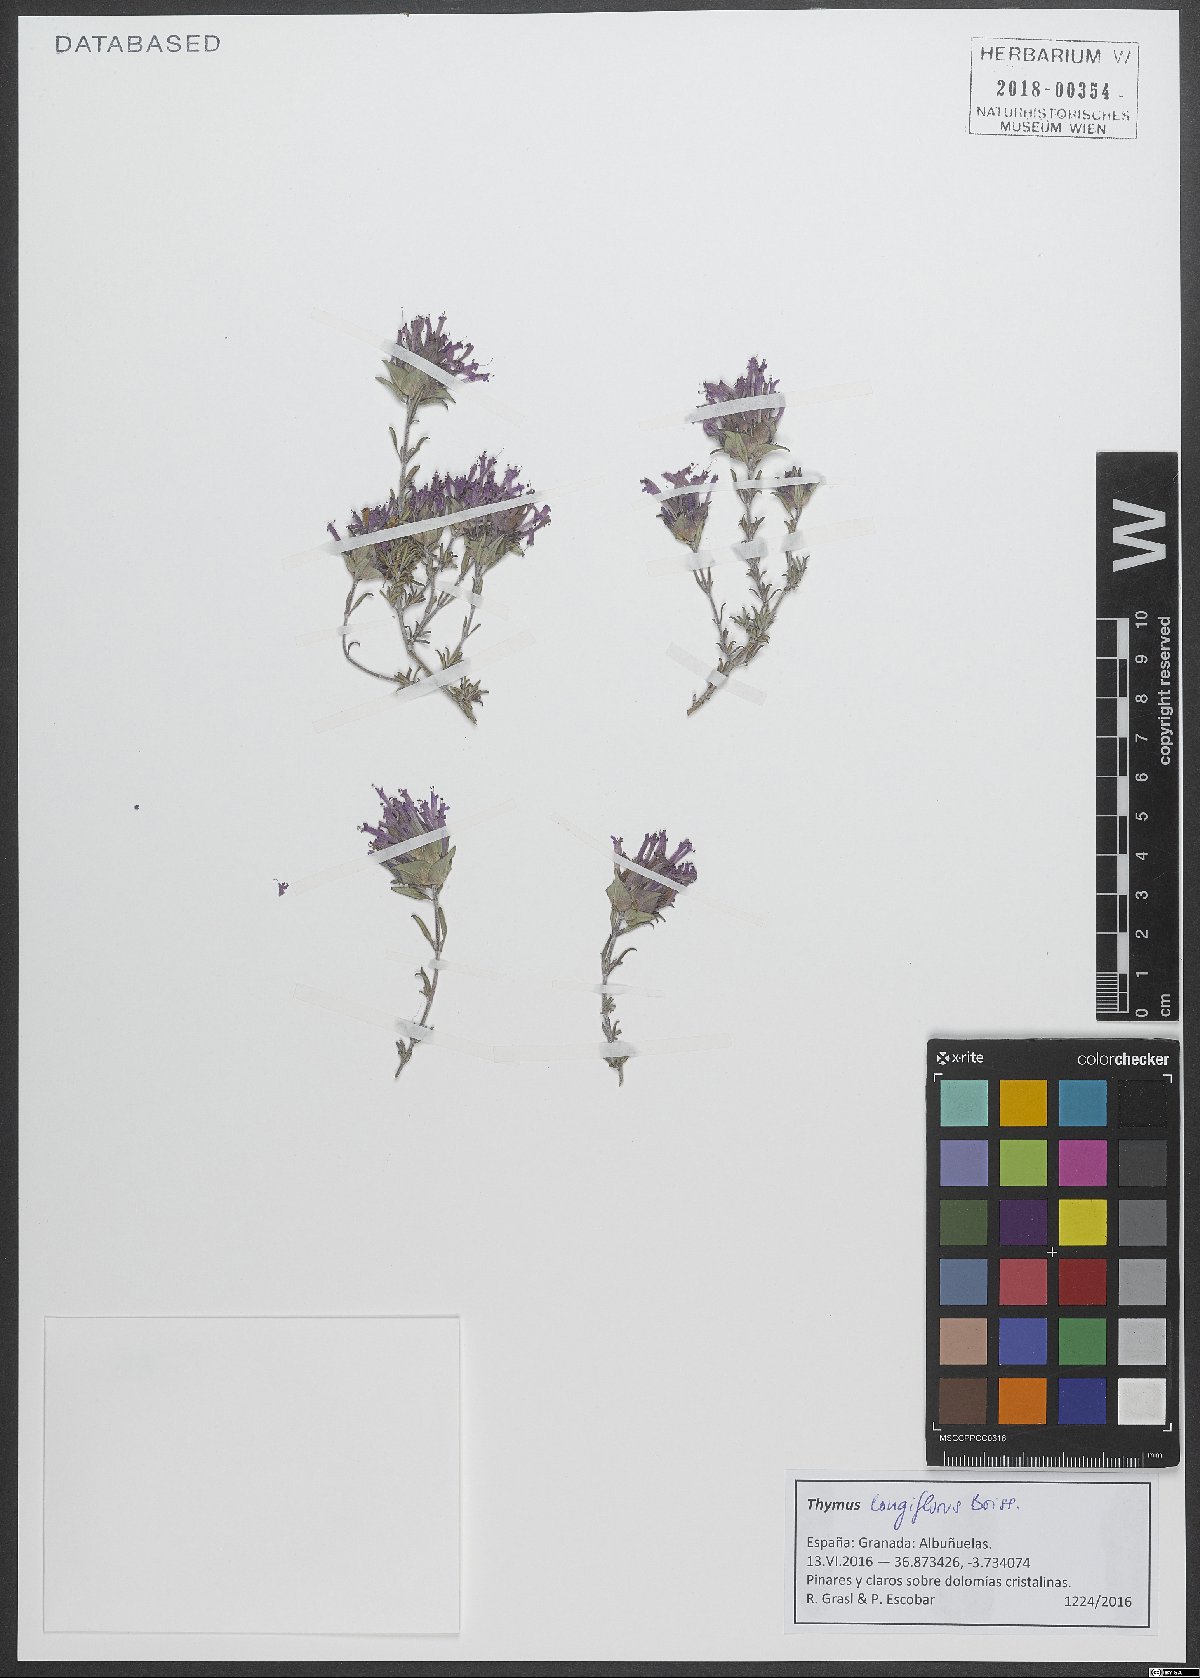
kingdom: Plantae
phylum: Tracheophyta
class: Magnoliopsida
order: Lamiales
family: Lamiaceae
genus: Thymus
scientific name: Thymus longiflorus
